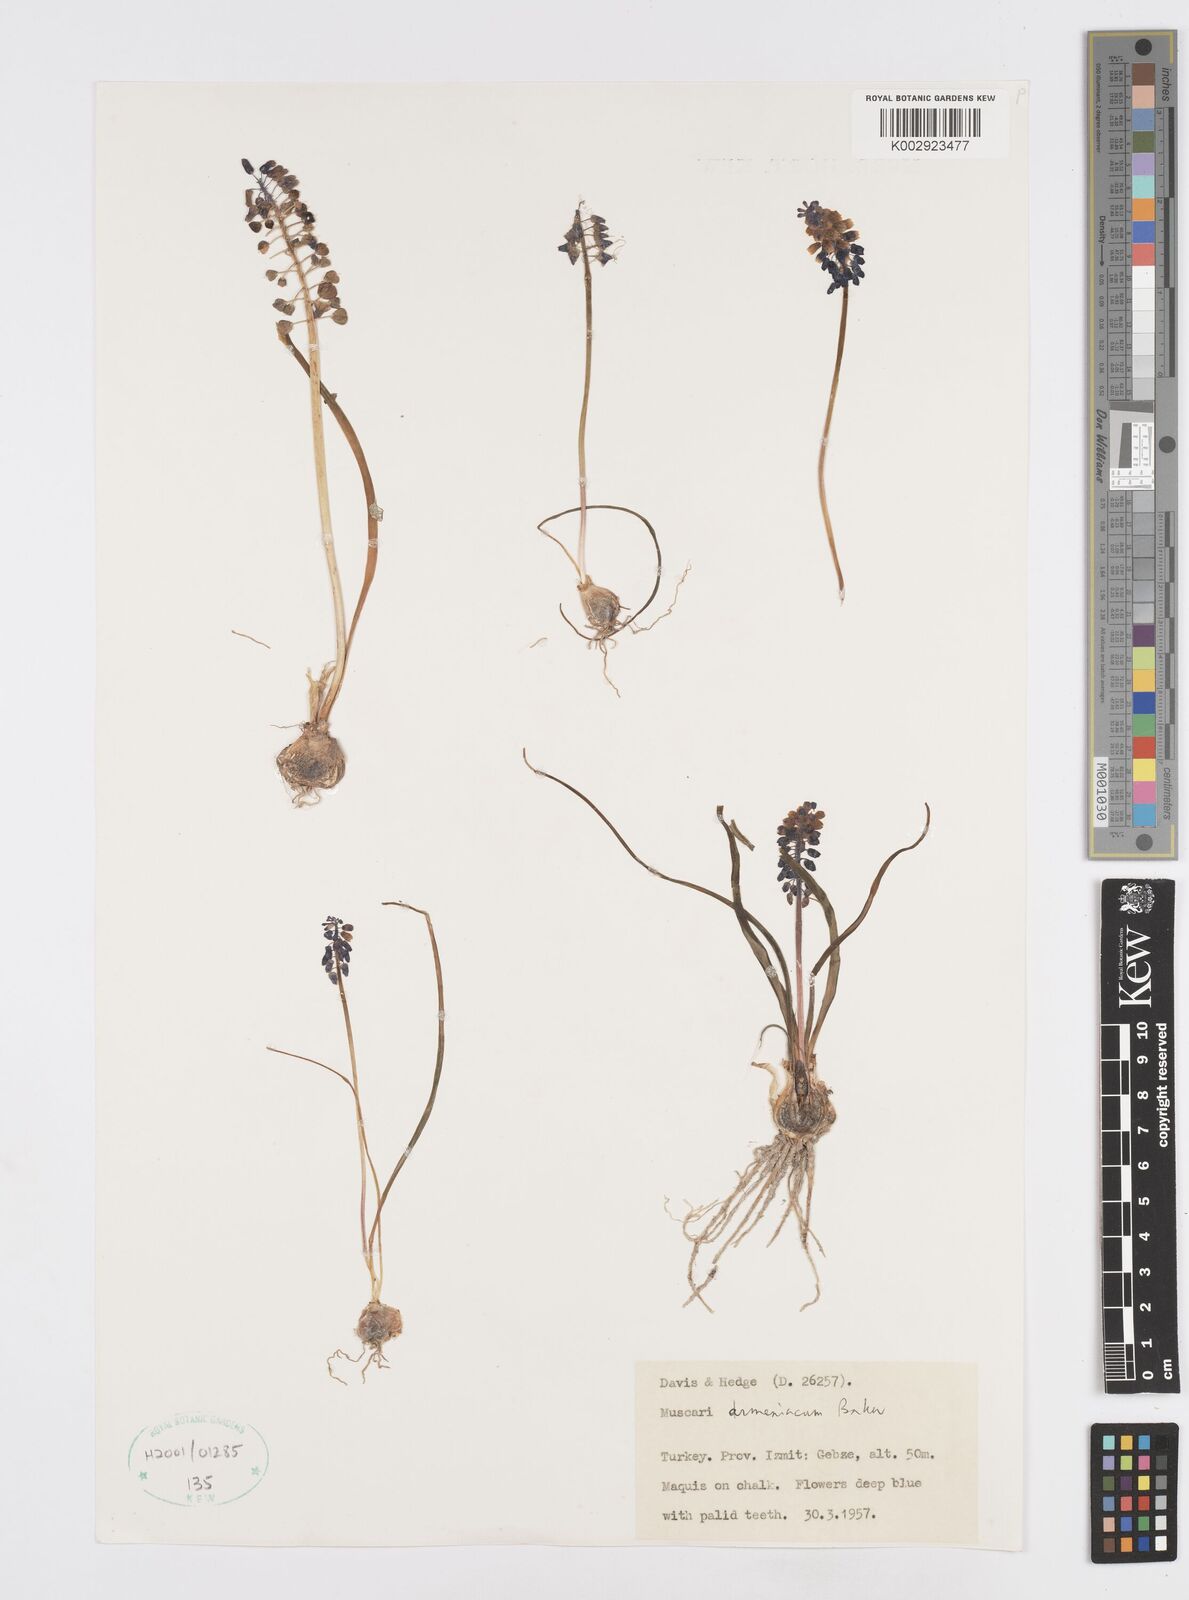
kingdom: Plantae
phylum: Tracheophyta
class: Liliopsida
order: Asparagales
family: Asparagaceae
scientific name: Asparagaceae
